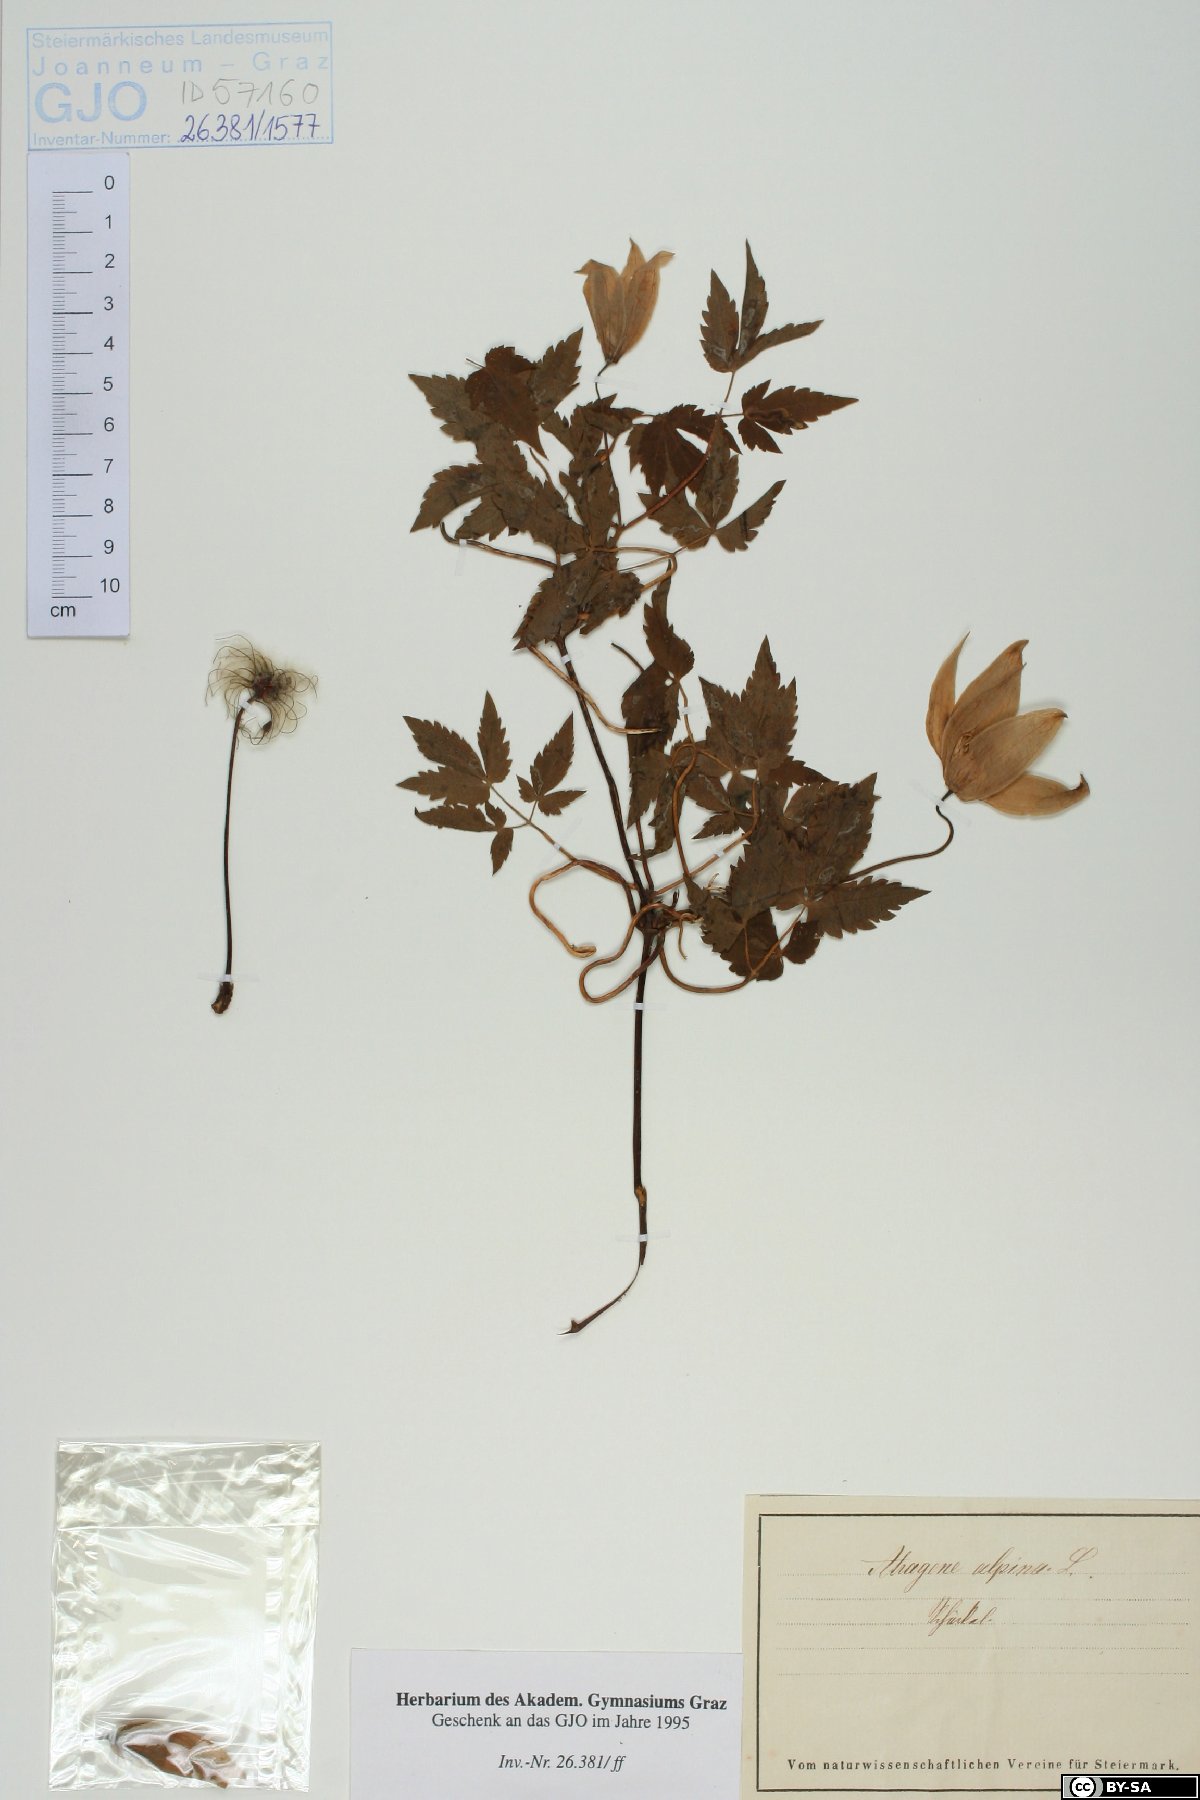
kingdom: Plantae
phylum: Tracheophyta
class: Magnoliopsida
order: Ranunculales
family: Ranunculaceae
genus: Clematis
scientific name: Clematis alpina
